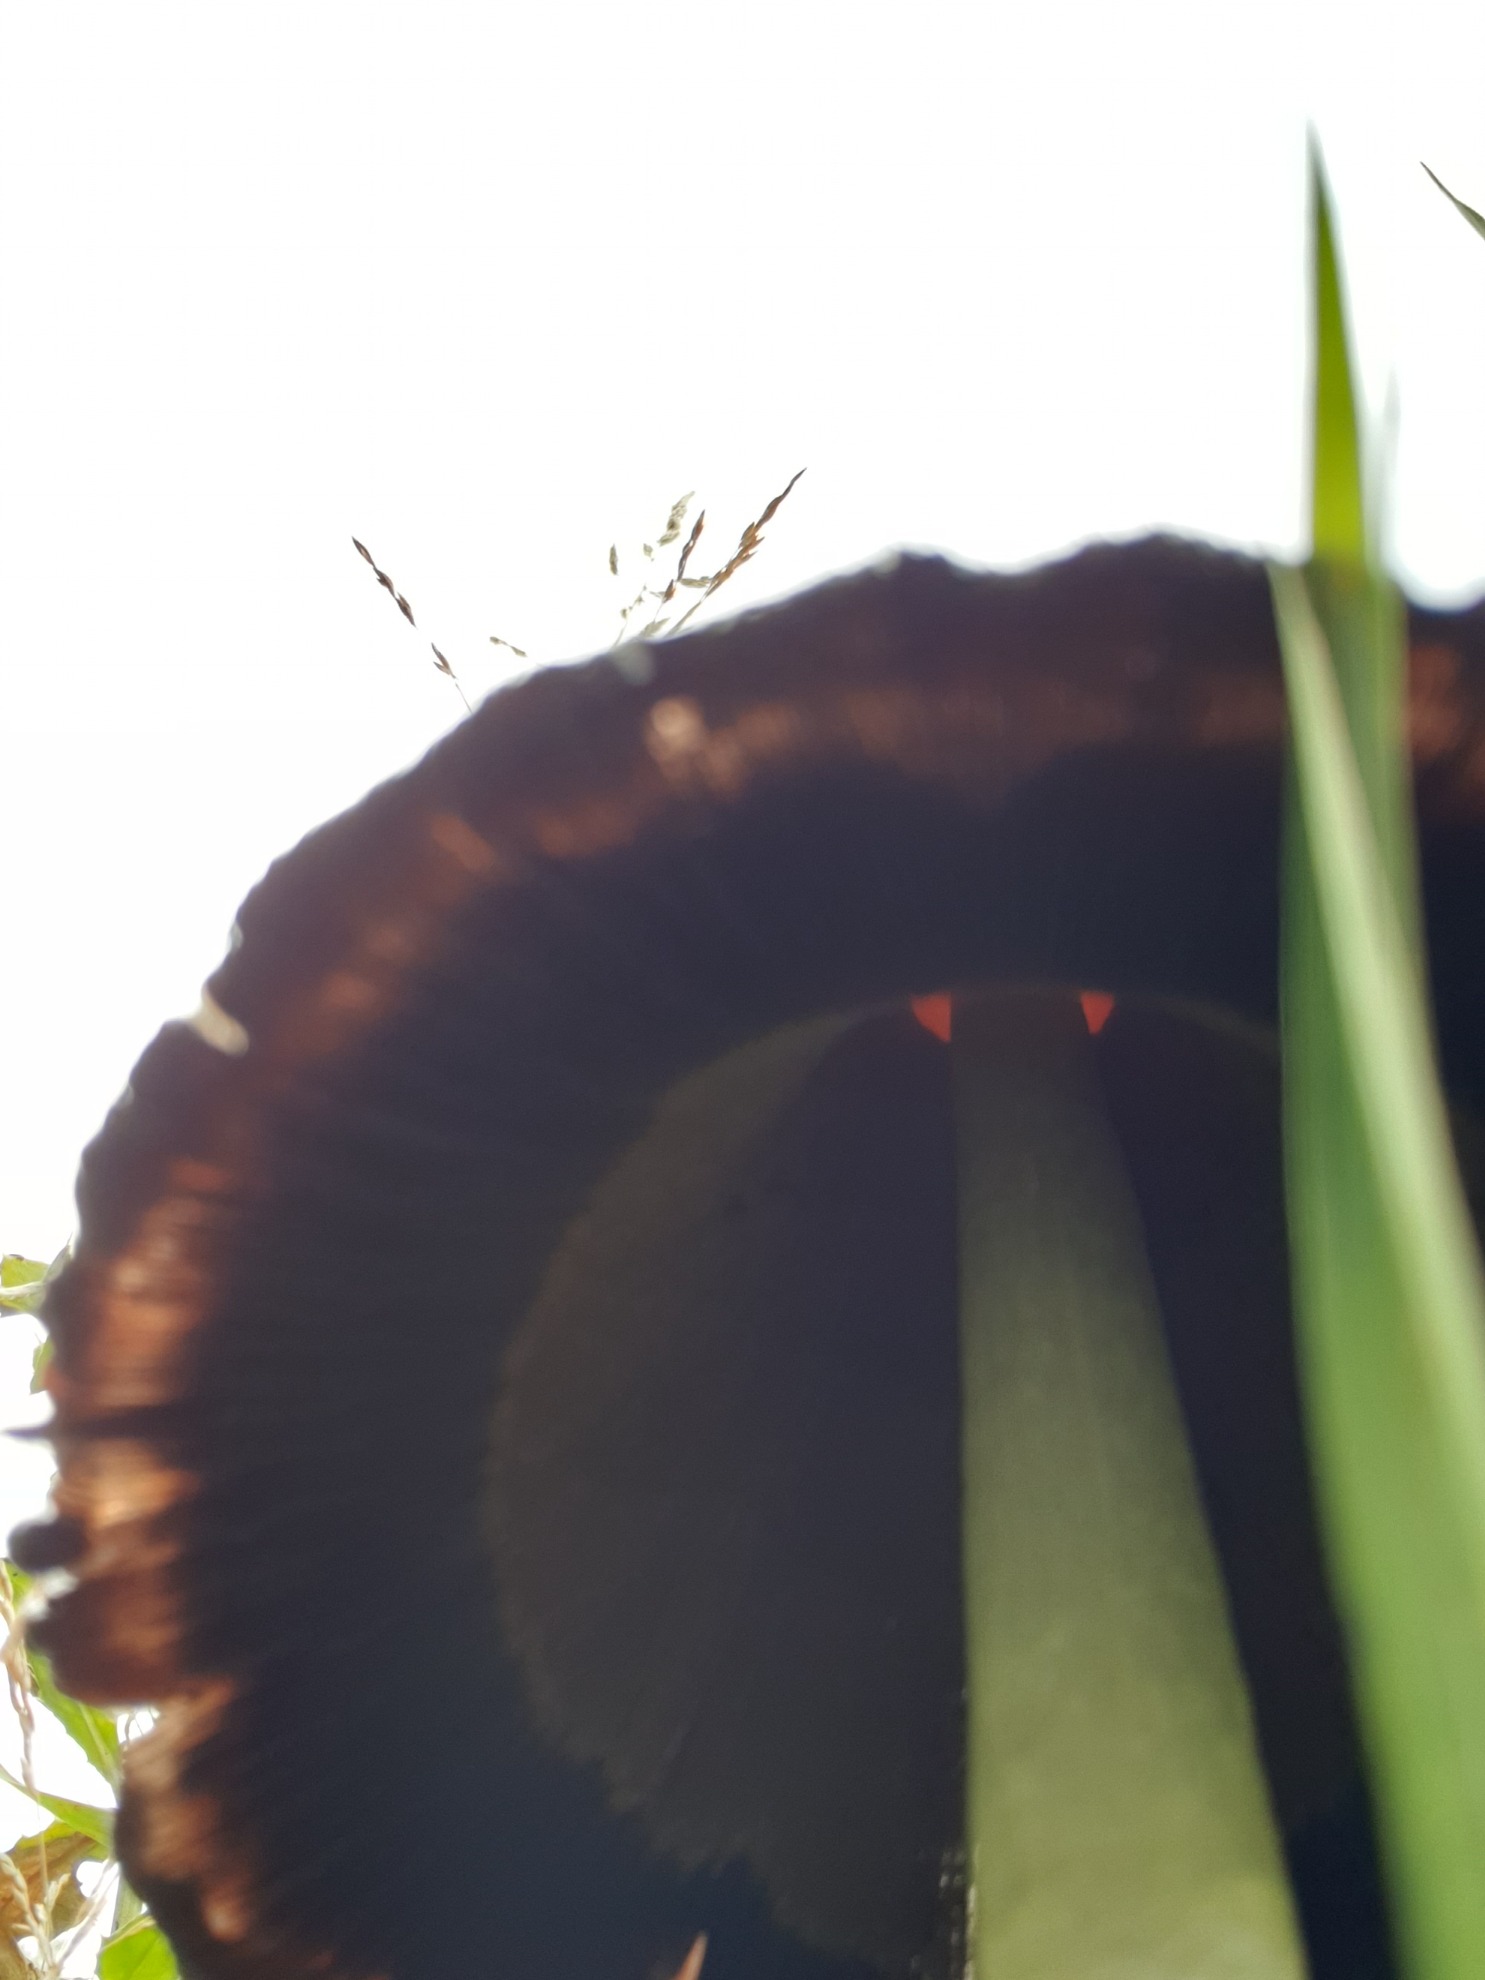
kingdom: Fungi
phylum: Basidiomycota
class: Agaricomycetes
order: Agaricales
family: Agaricaceae
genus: Coprinus
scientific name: Coprinus comatus
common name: Stor parykhat
